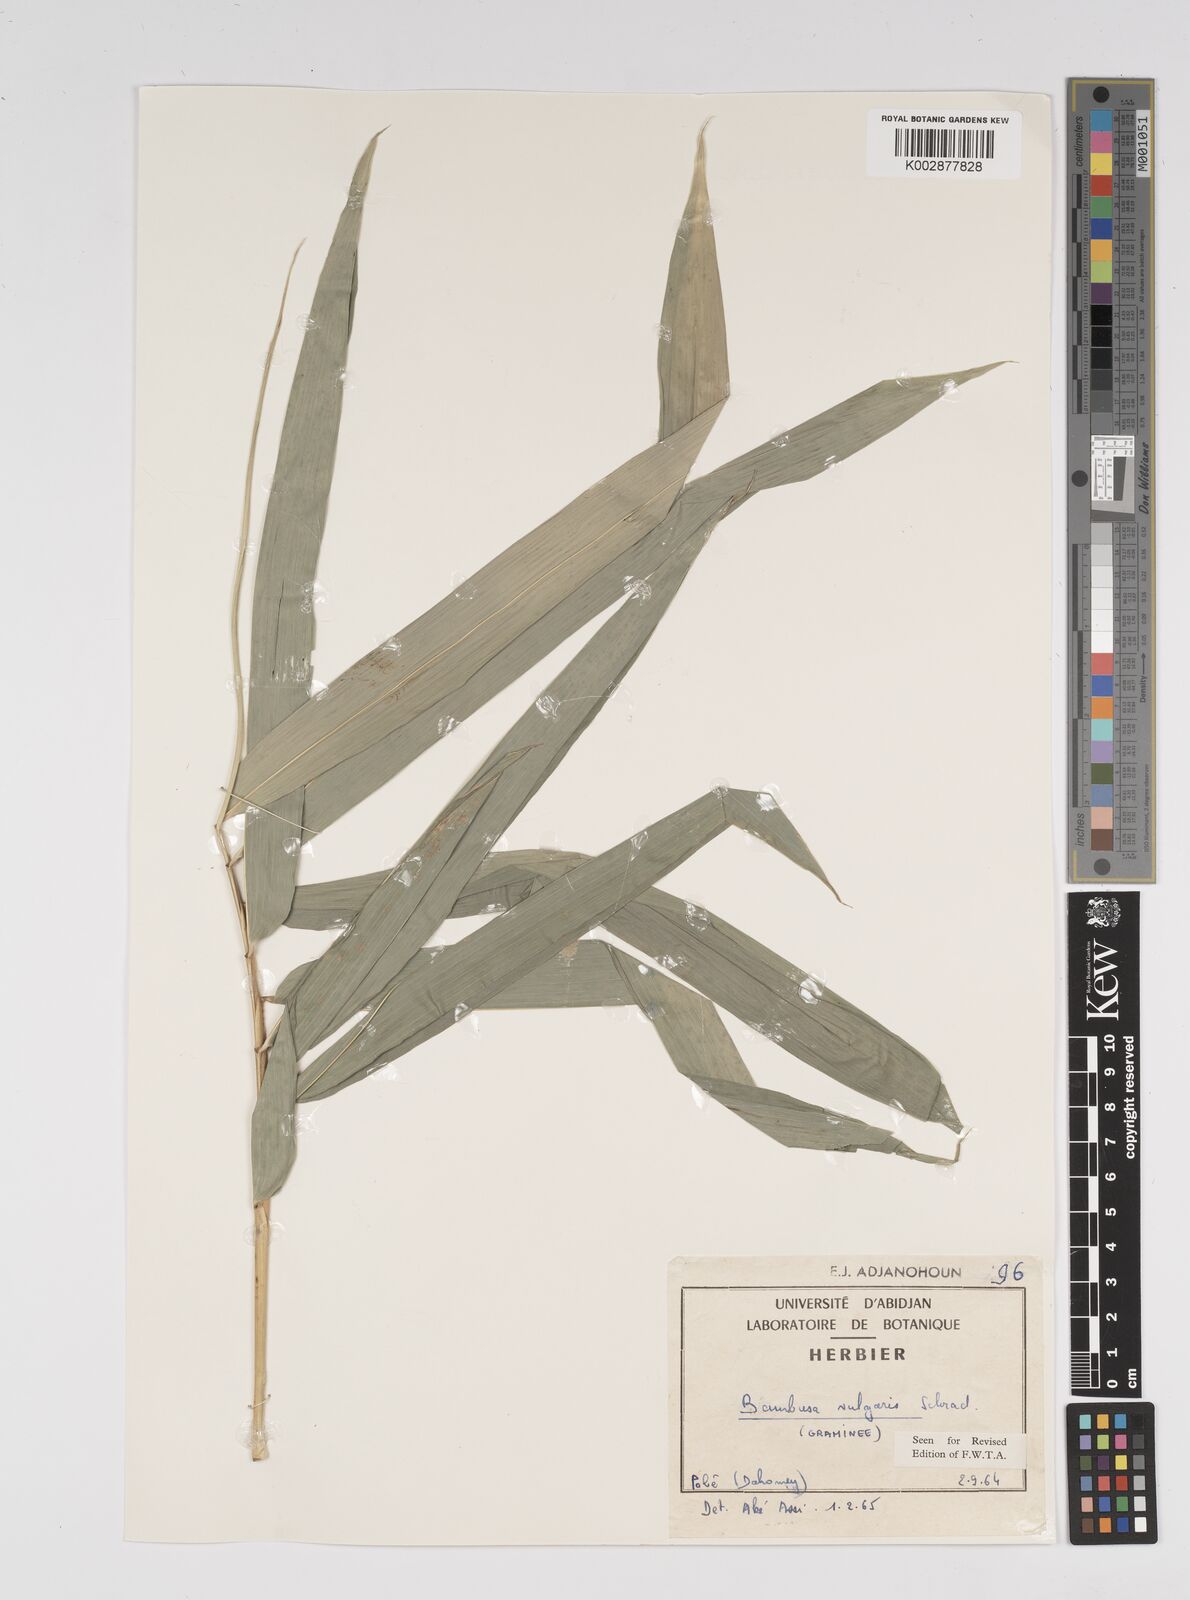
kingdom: Plantae
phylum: Tracheophyta
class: Liliopsida
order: Poales
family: Poaceae
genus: Bambusa
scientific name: Bambusa vulgaris
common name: Common bamboo
